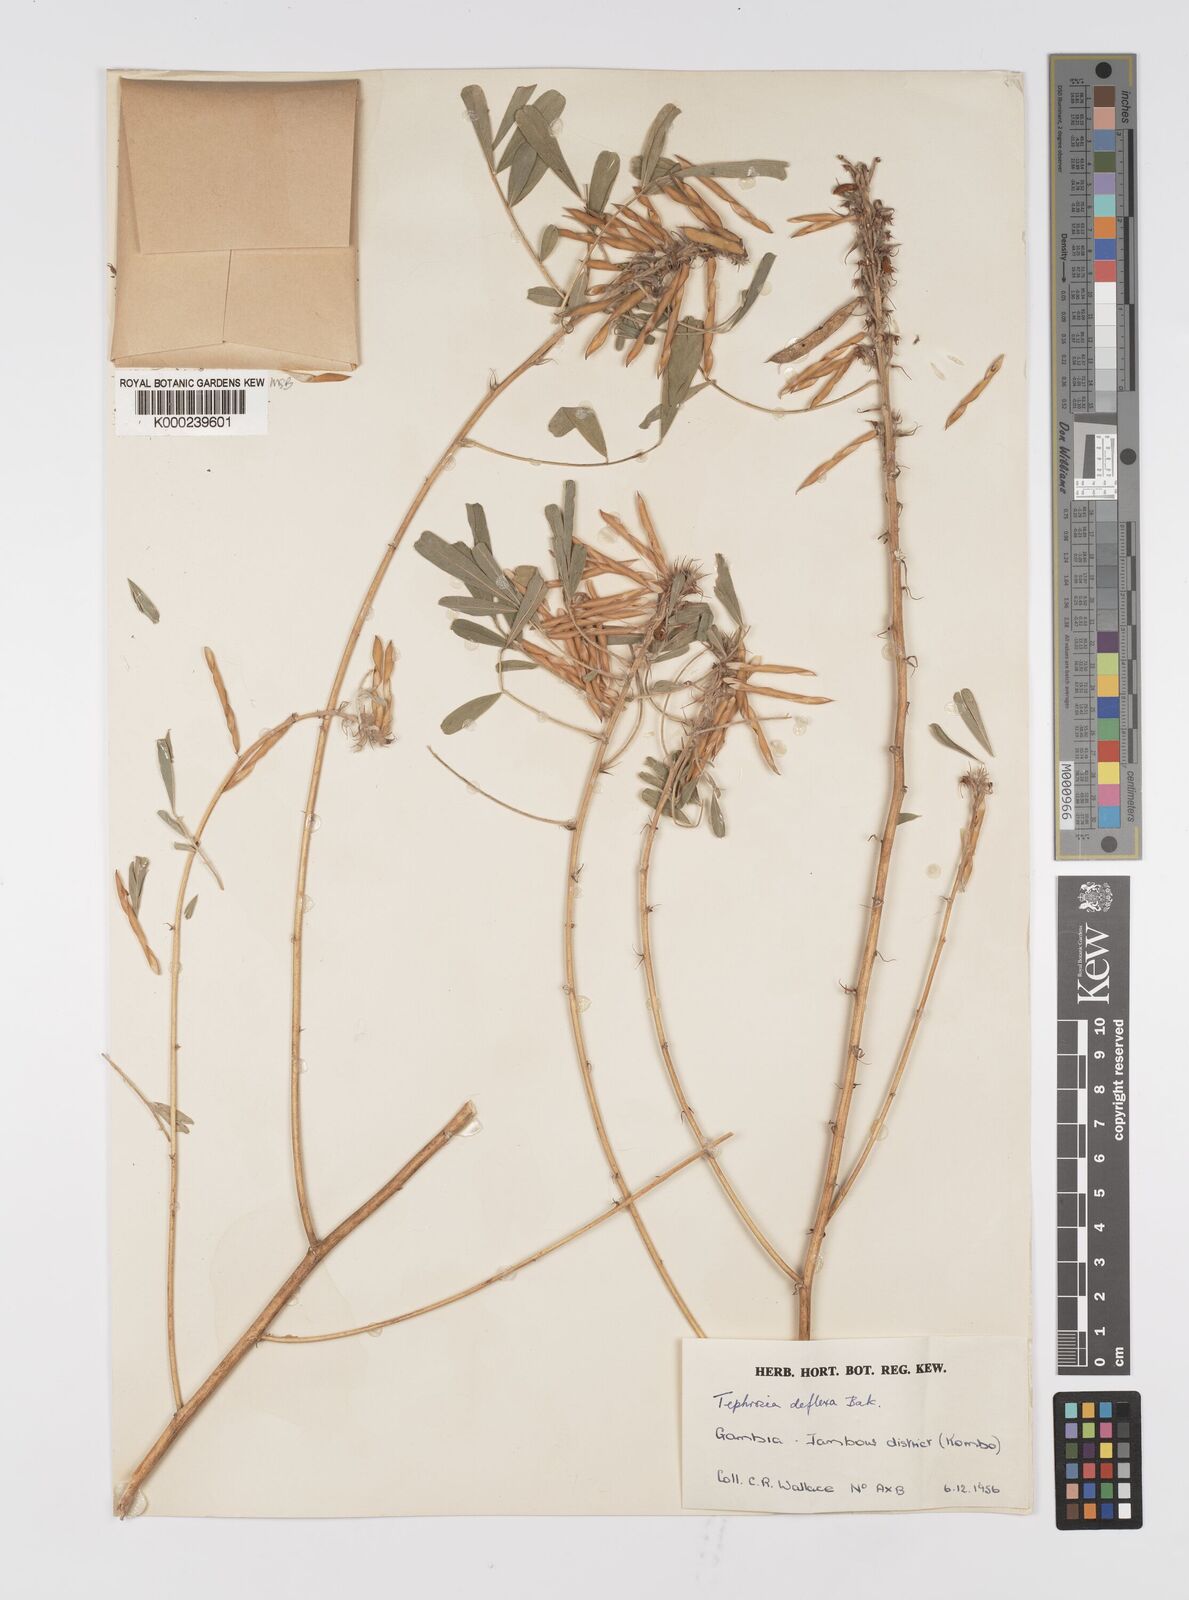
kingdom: Plantae
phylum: Tracheophyta
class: Magnoliopsida
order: Fabales
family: Fabaceae
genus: Tephrosia
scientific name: Tephrosia deflexa
